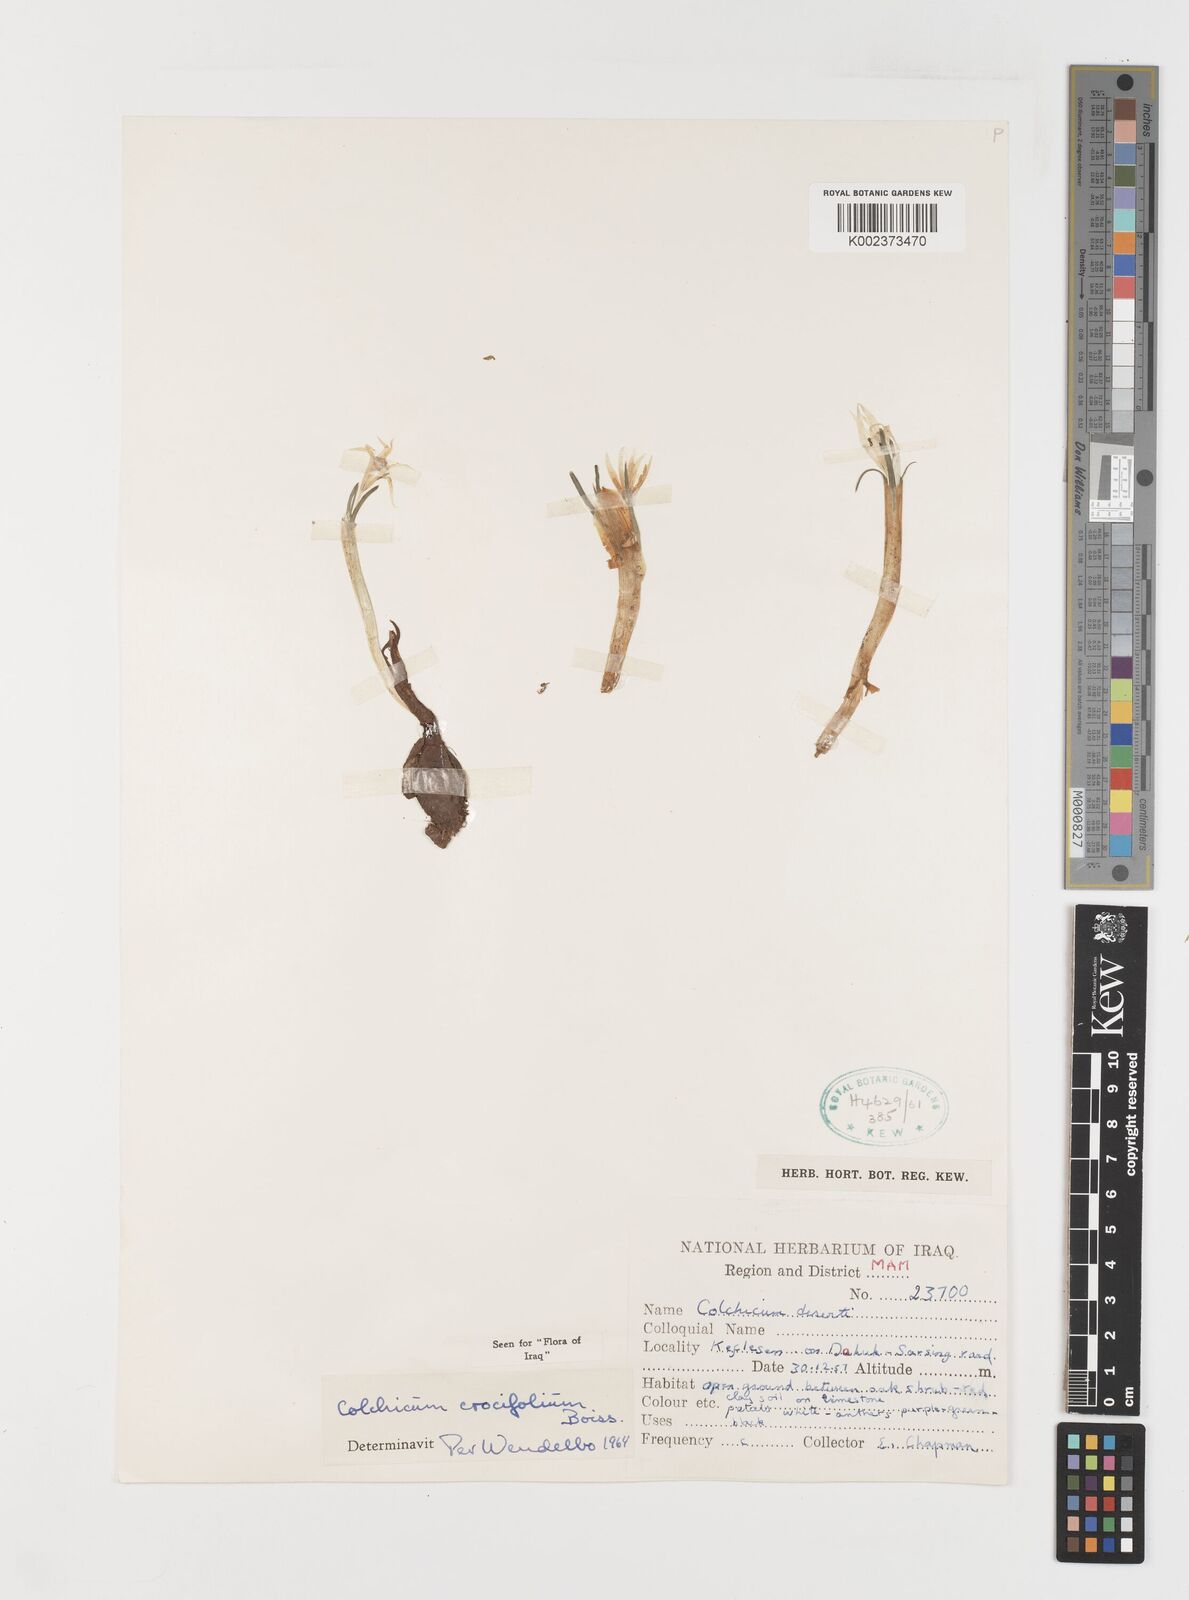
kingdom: Plantae
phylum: Tracheophyta
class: Liliopsida
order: Liliales
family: Colchicaceae
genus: Colchicum
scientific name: Colchicum crocifolium
